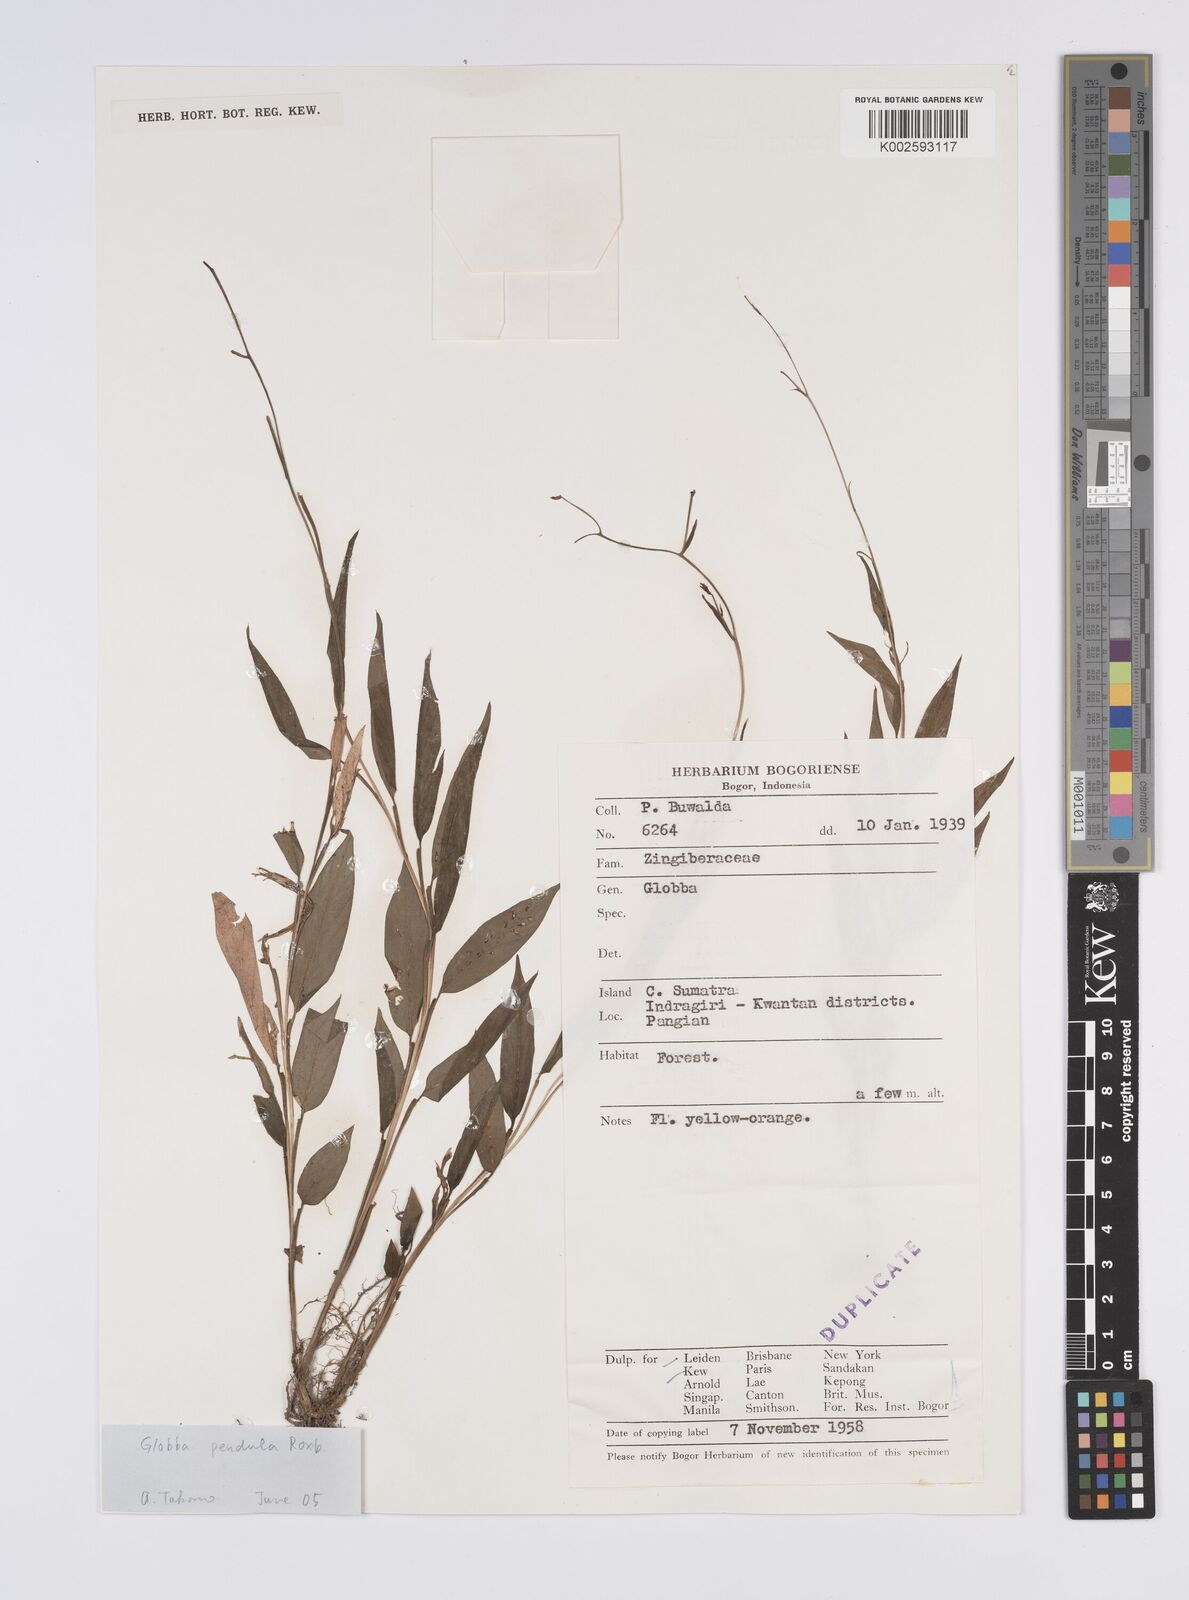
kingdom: Plantae
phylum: Tracheophyta
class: Liliopsida
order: Zingiberales
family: Zingiberaceae
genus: Globba
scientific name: Globba pendula
